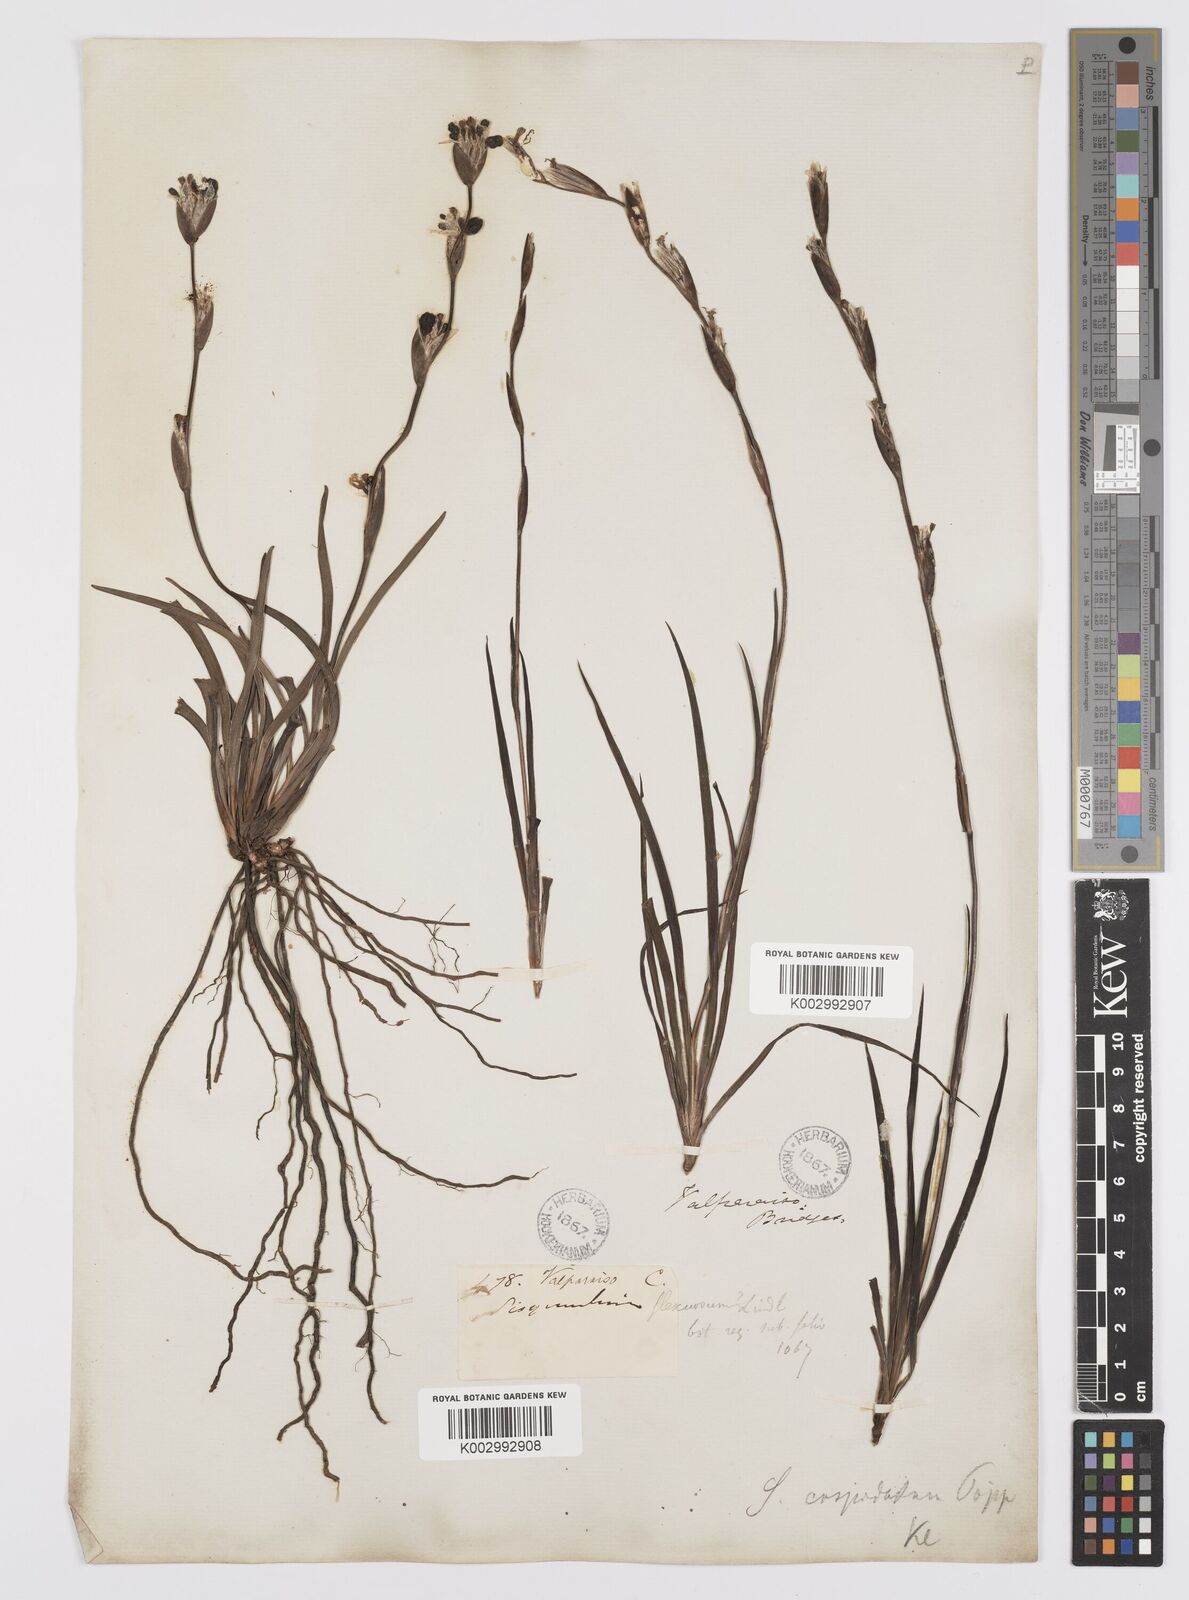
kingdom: Plantae
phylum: Tracheophyta
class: Liliopsida
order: Asparagales
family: Iridaceae
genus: Sisyrinchium
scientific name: Sisyrinchium cuspidatum
